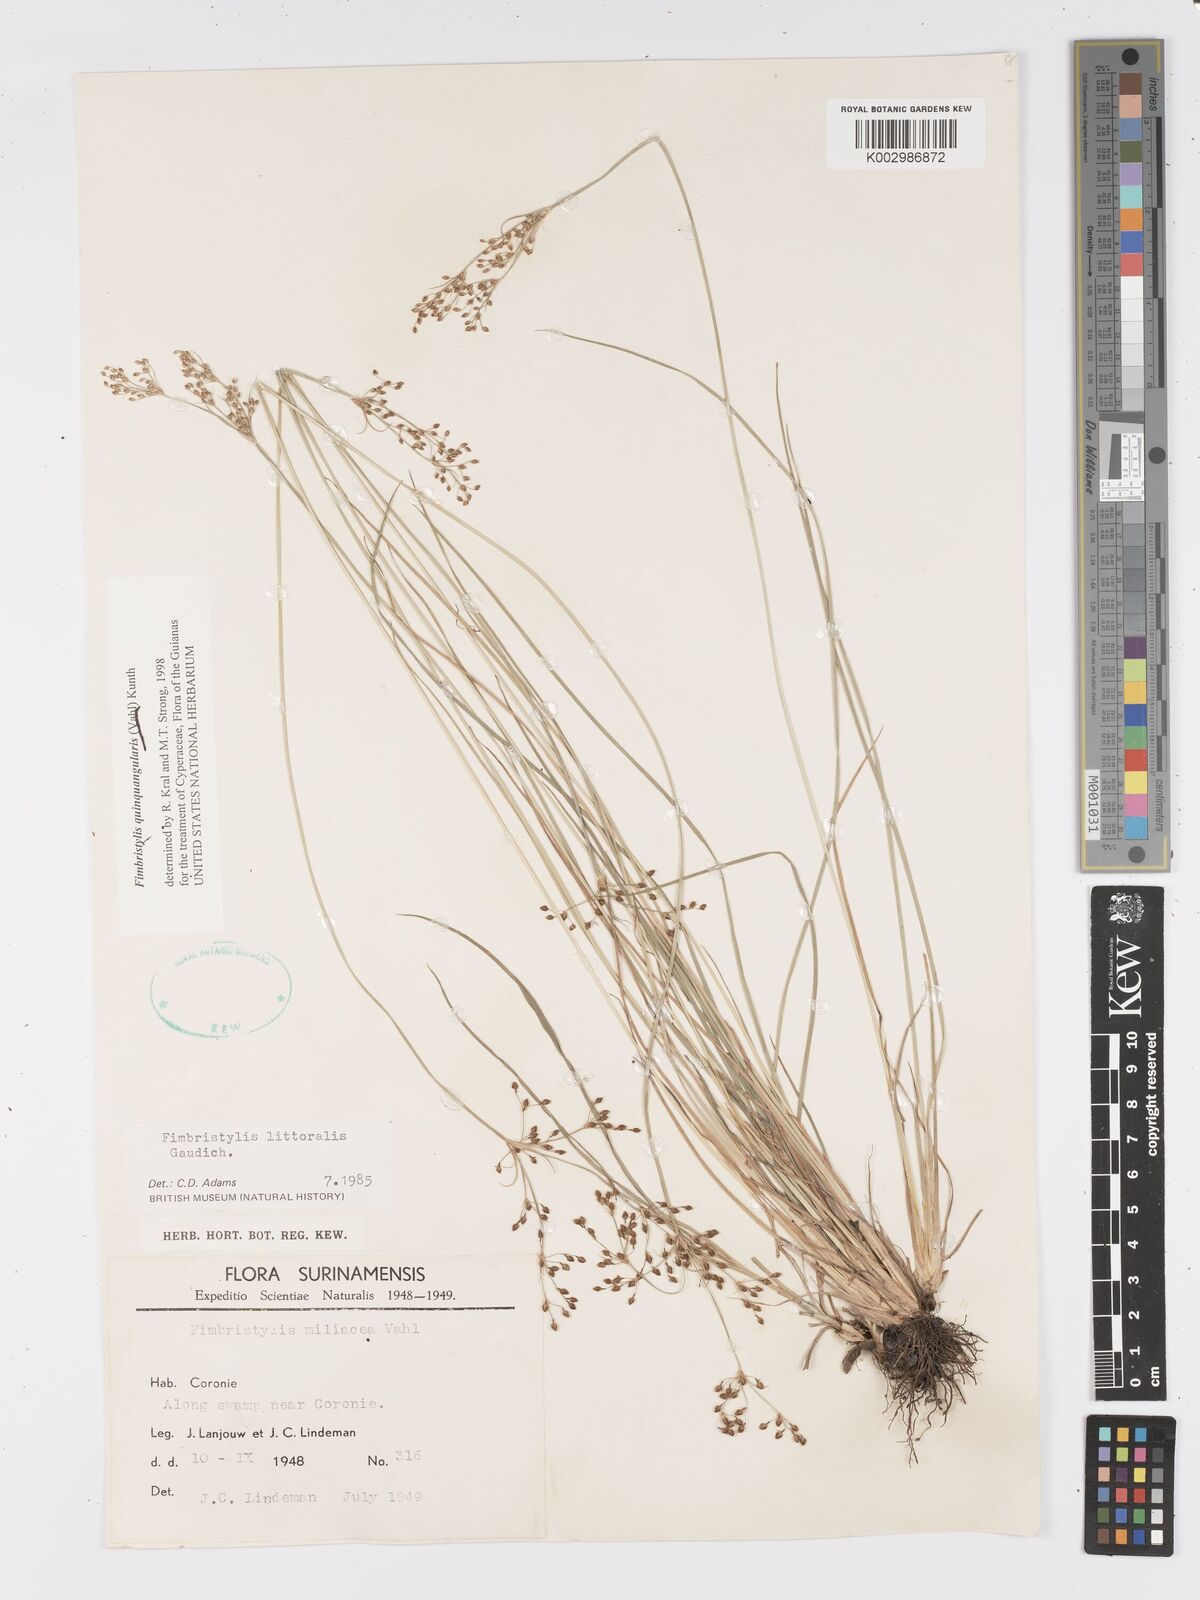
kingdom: Plantae
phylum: Tracheophyta
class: Liliopsida
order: Poales
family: Cyperaceae
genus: Fimbristylis
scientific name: Fimbristylis quinquangularis
